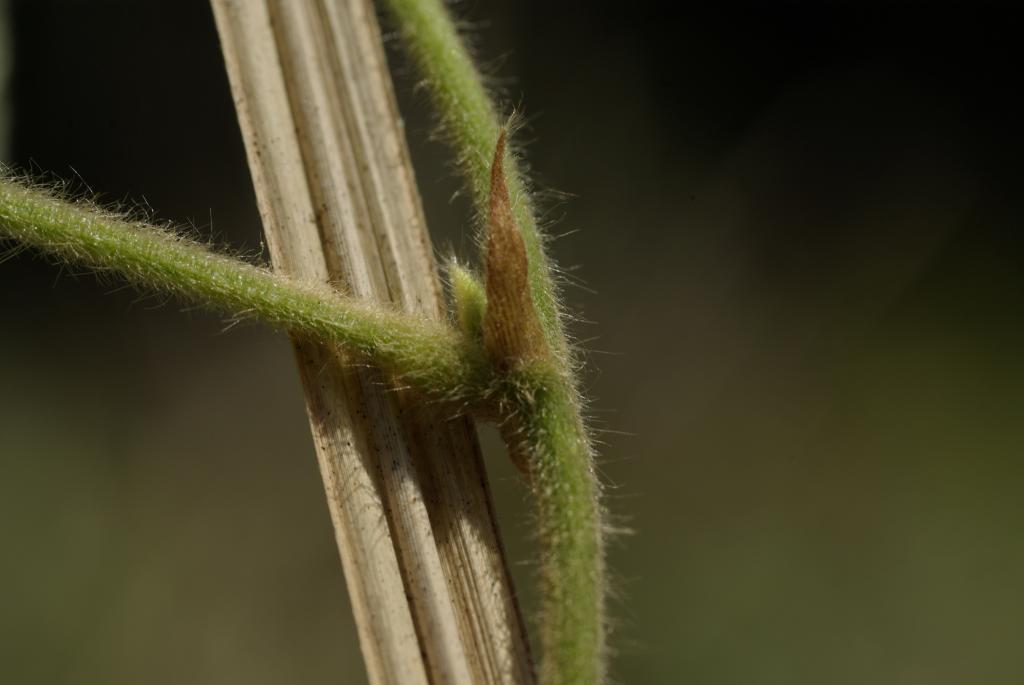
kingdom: Plantae
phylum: Tracheophyta
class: Magnoliopsida
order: Fabales
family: Fabaceae
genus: Rhynchosia
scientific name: Rhynchosia volubilis
